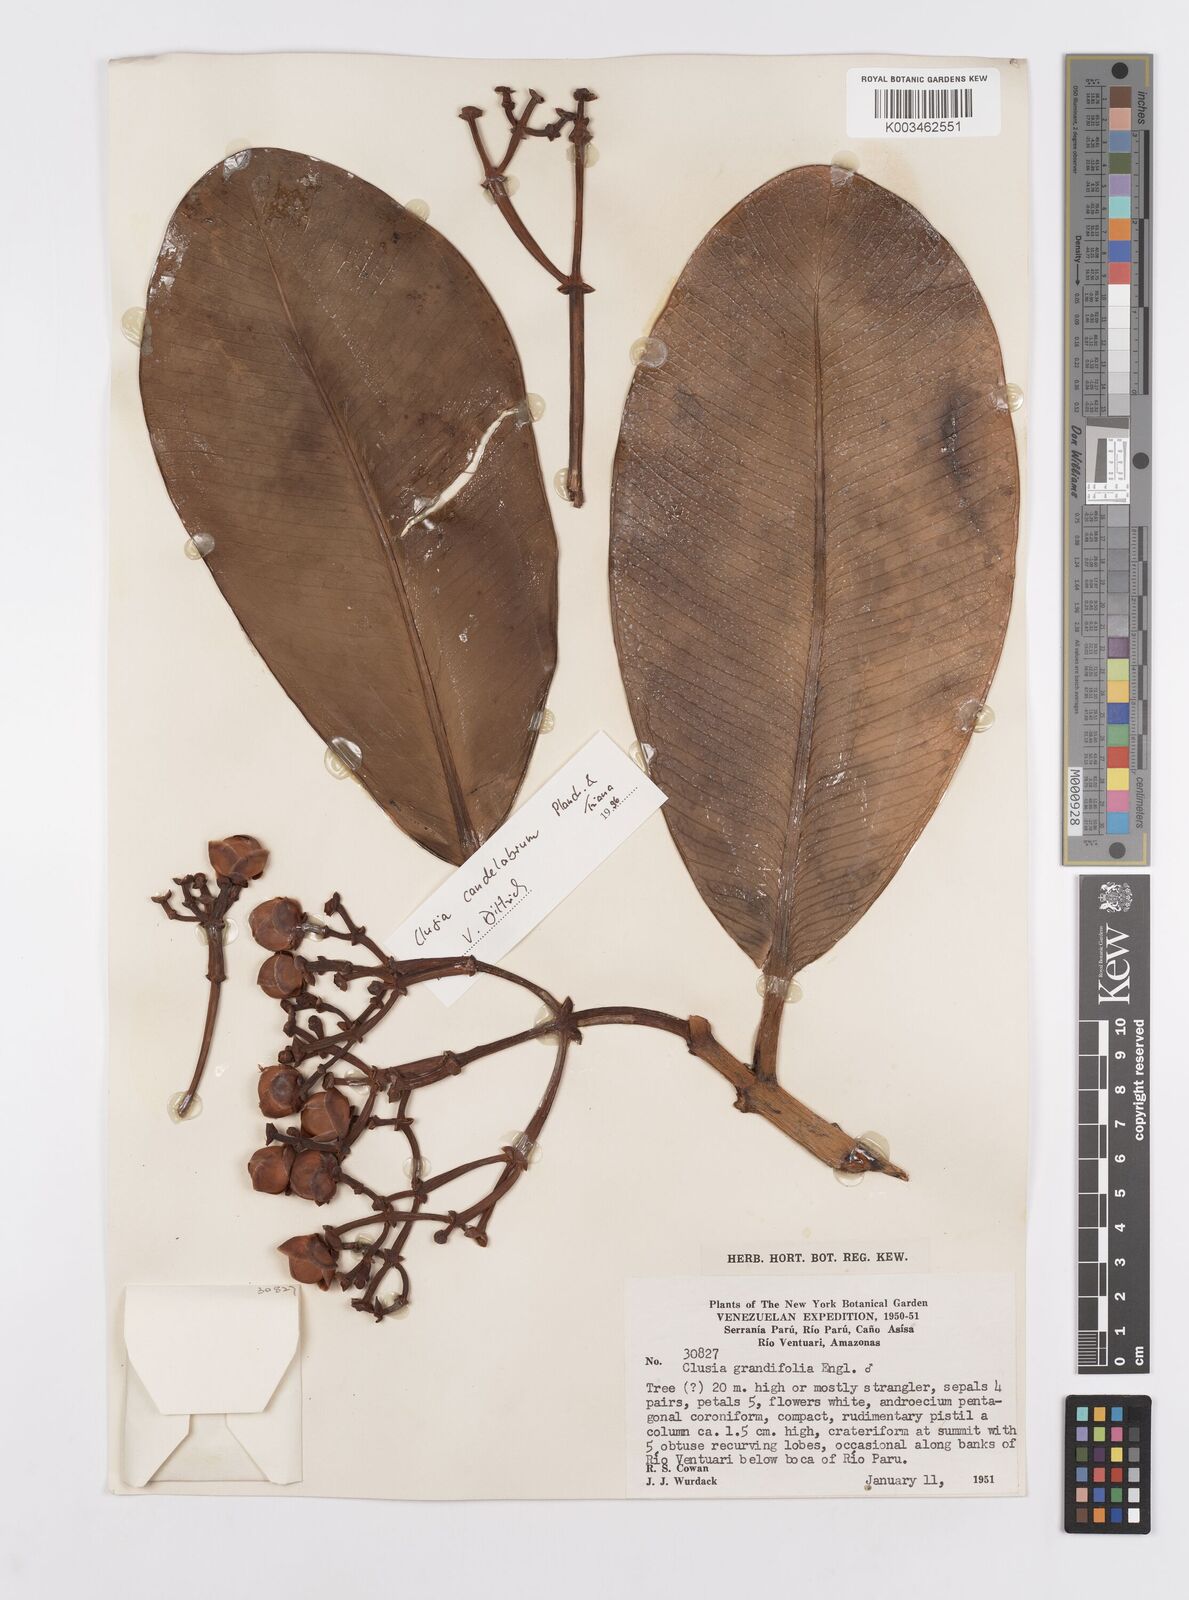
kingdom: Plantae
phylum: Tracheophyta
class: Magnoliopsida
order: Malpighiales
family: Clusiaceae
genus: Clusia
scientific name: Clusia candelabrum
